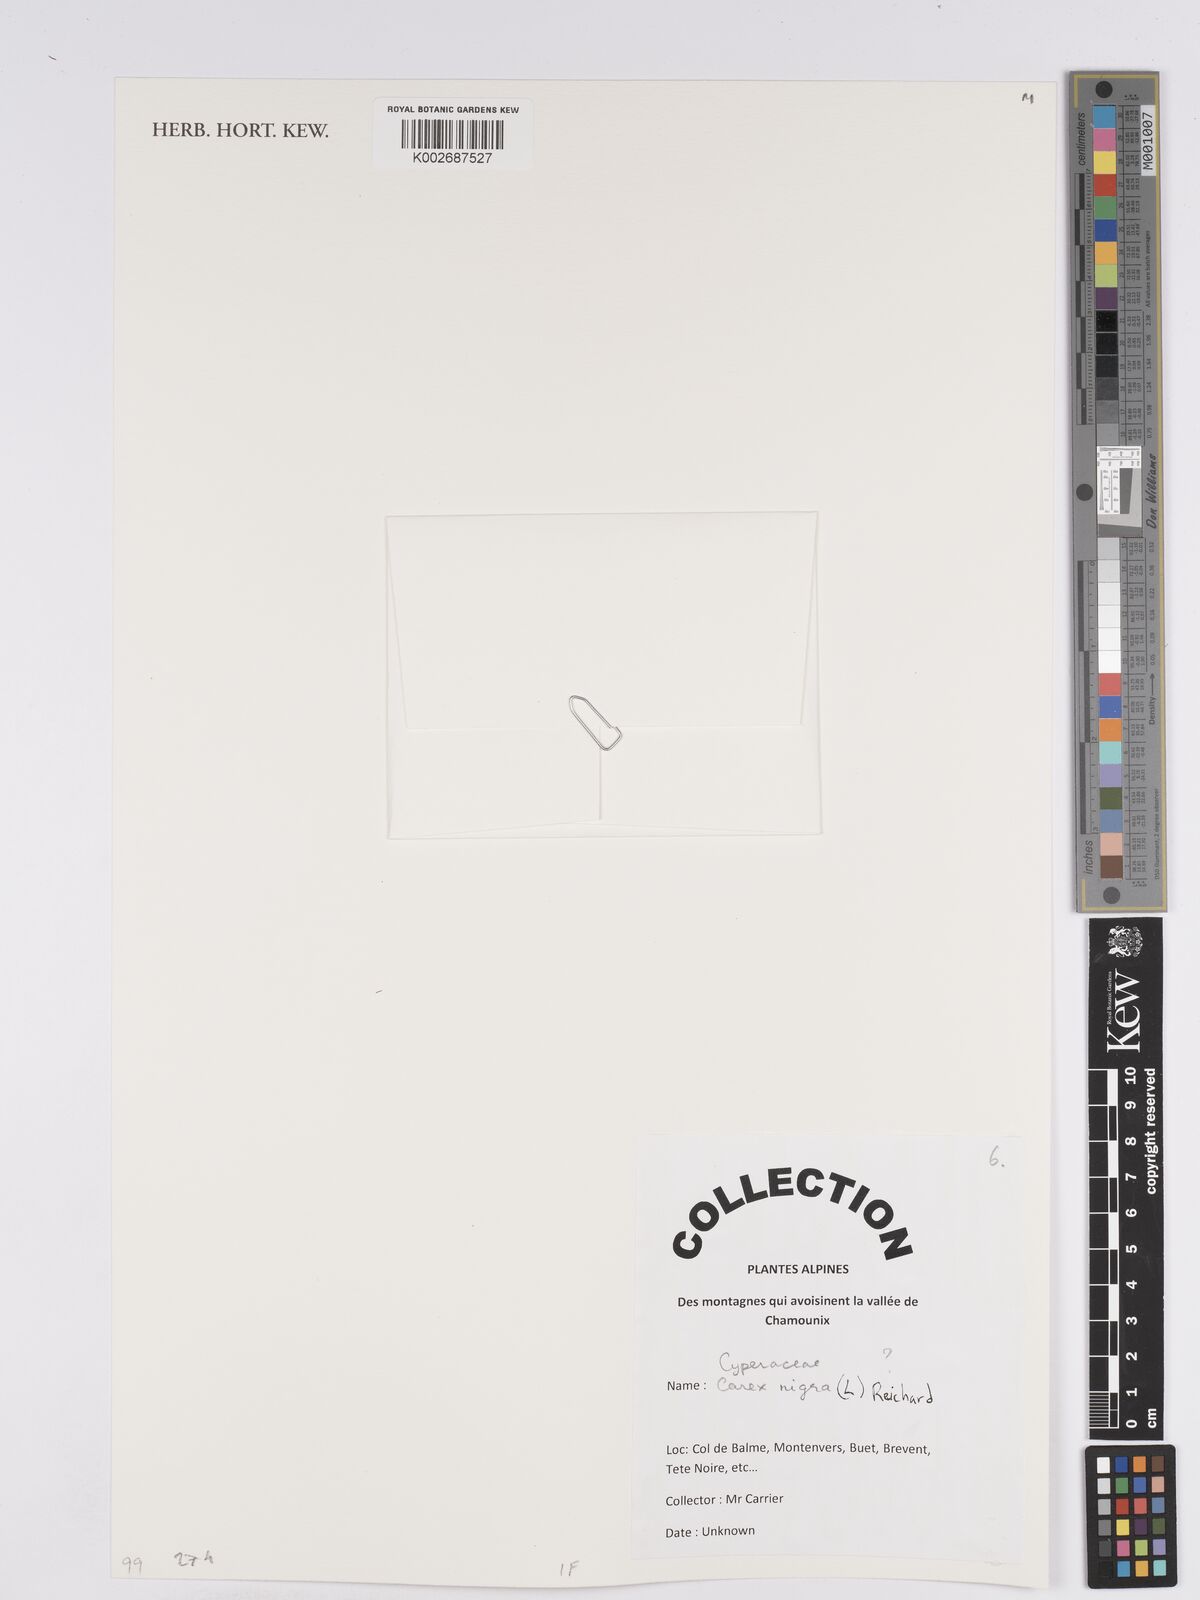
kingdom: Plantae
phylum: Tracheophyta
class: Liliopsida
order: Poales
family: Cyperaceae
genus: Carex
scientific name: Carex nigra
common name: Common sedge
